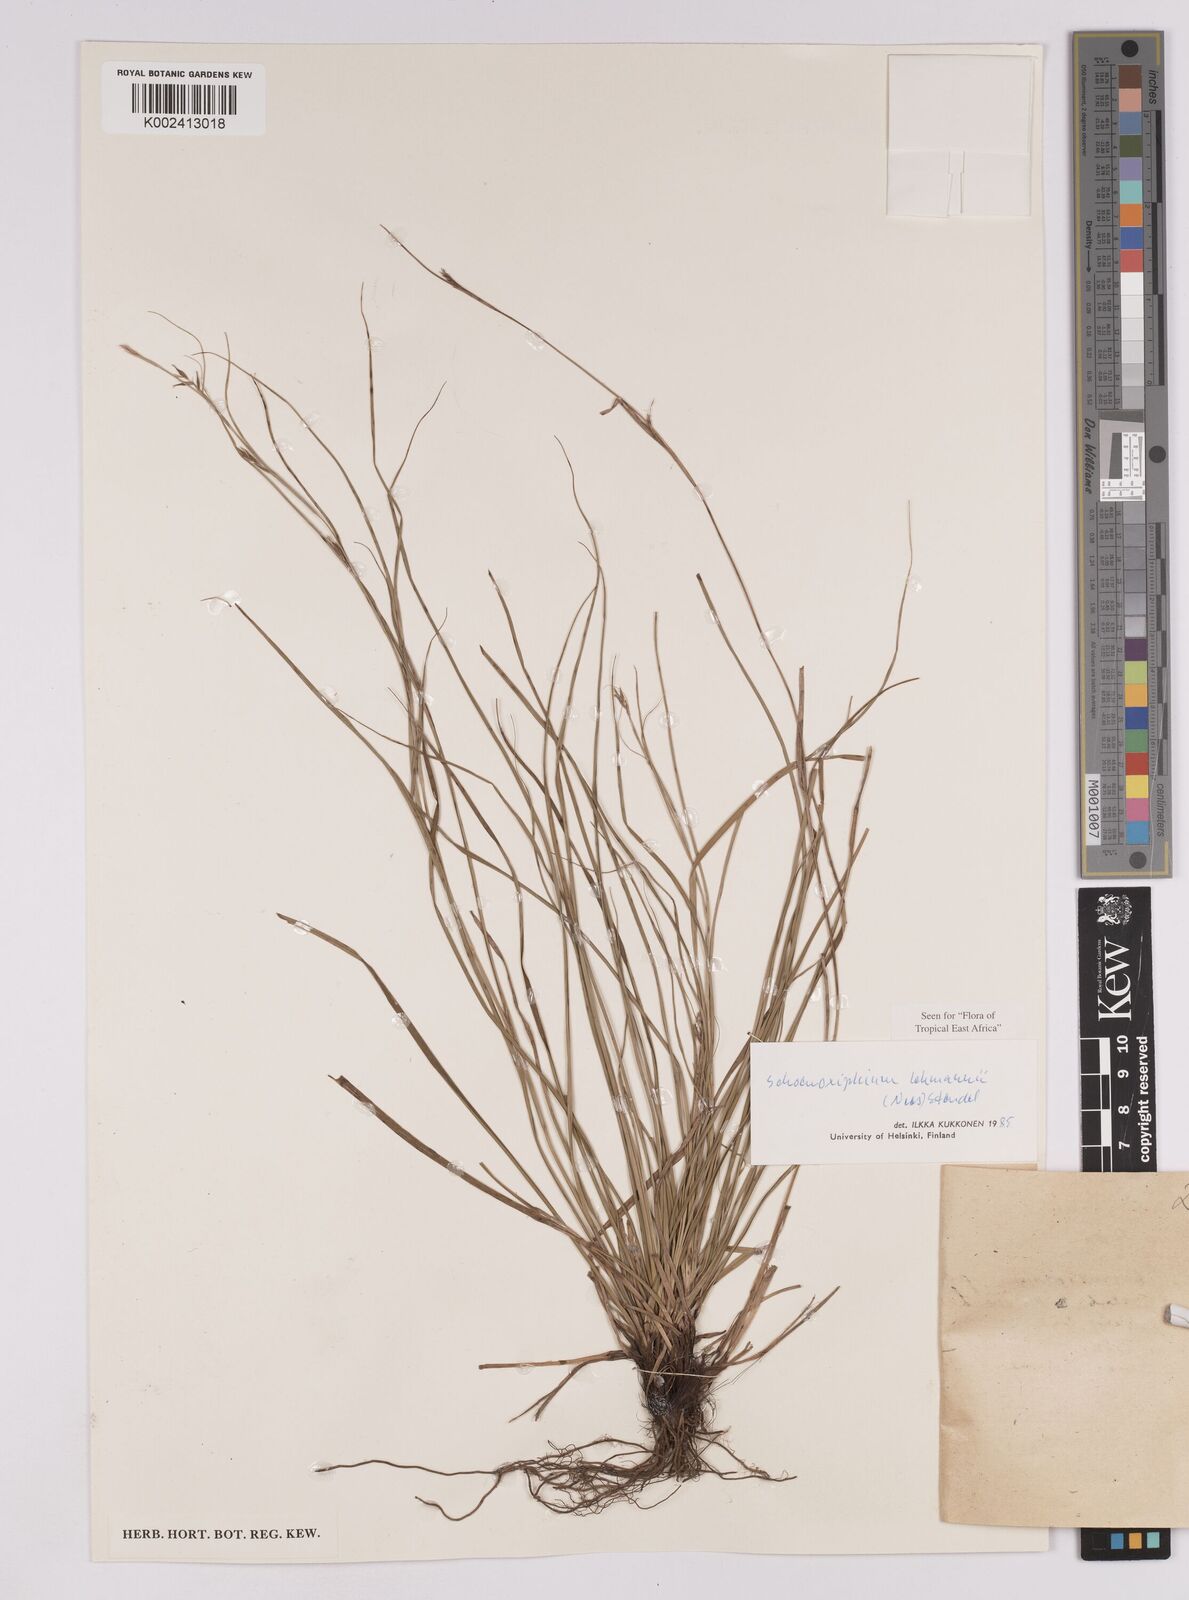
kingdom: Plantae
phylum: Tracheophyta
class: Liliopsida
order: Poales
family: Cyperaceae
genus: Carex
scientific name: Carex uhligii
